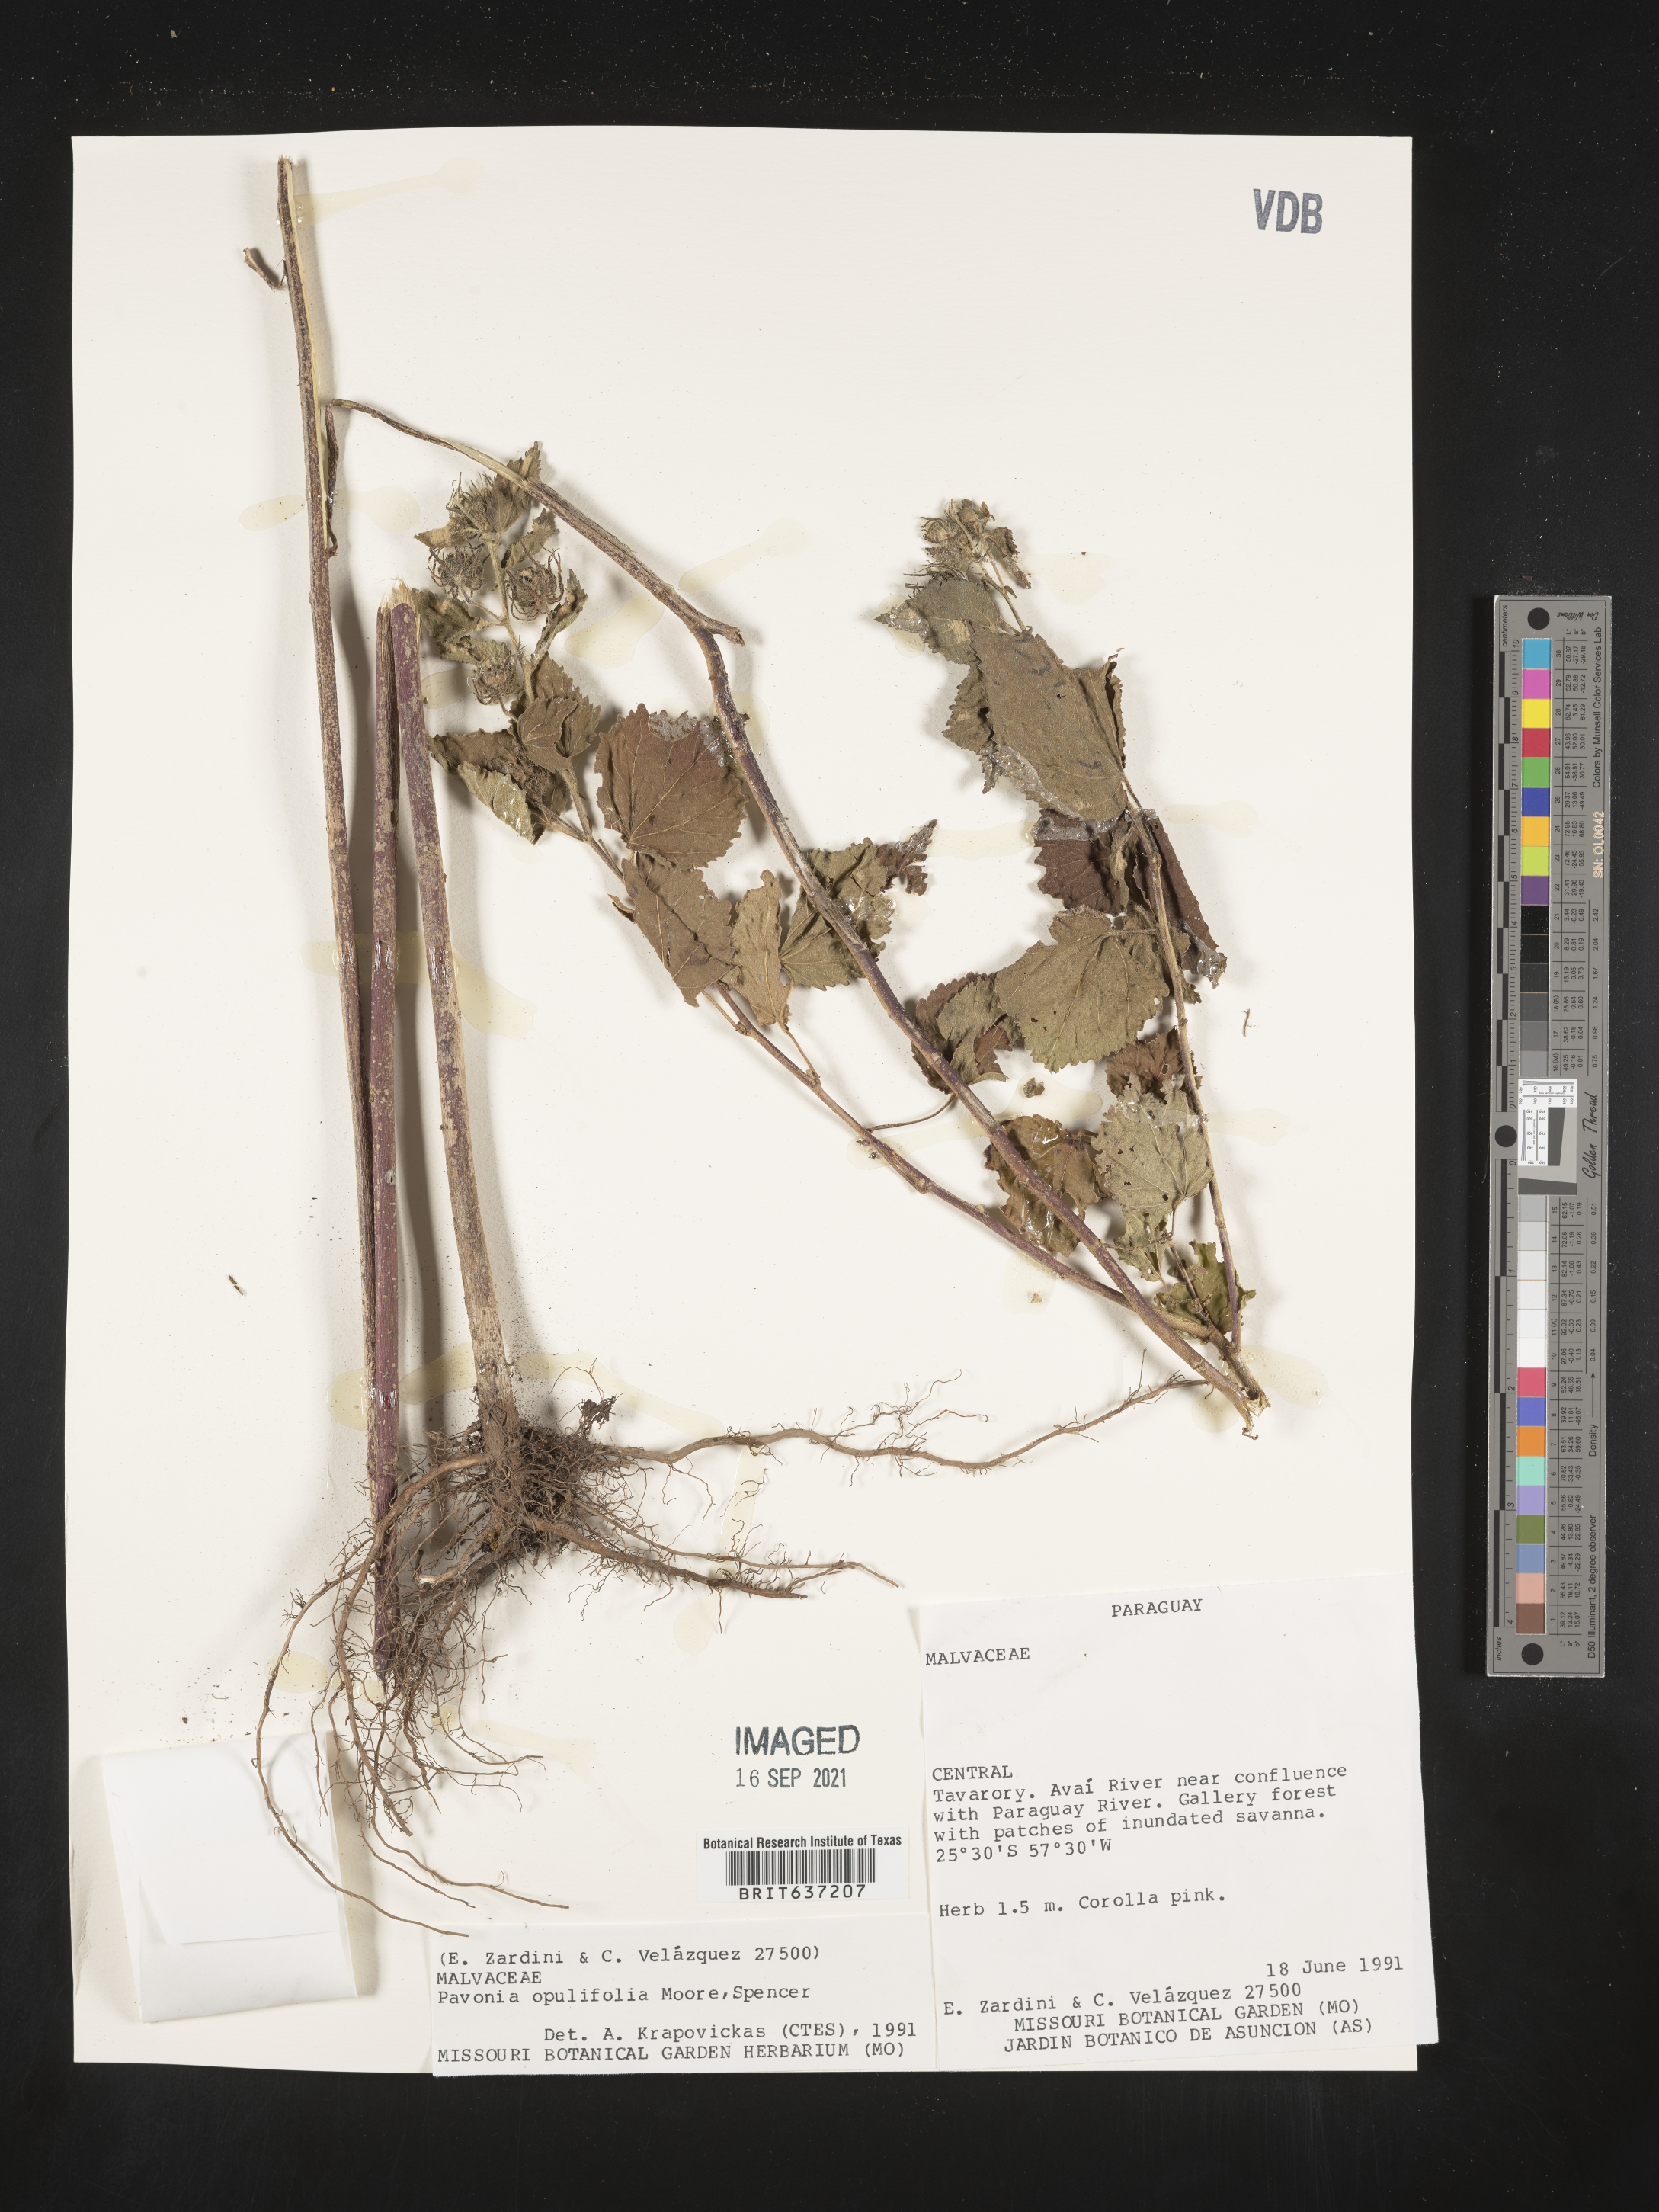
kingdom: Plantae
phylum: Tracheophyta
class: Magnoliopsida
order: Malvales
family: Malvaceae
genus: Pavonia
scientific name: Pavonia
